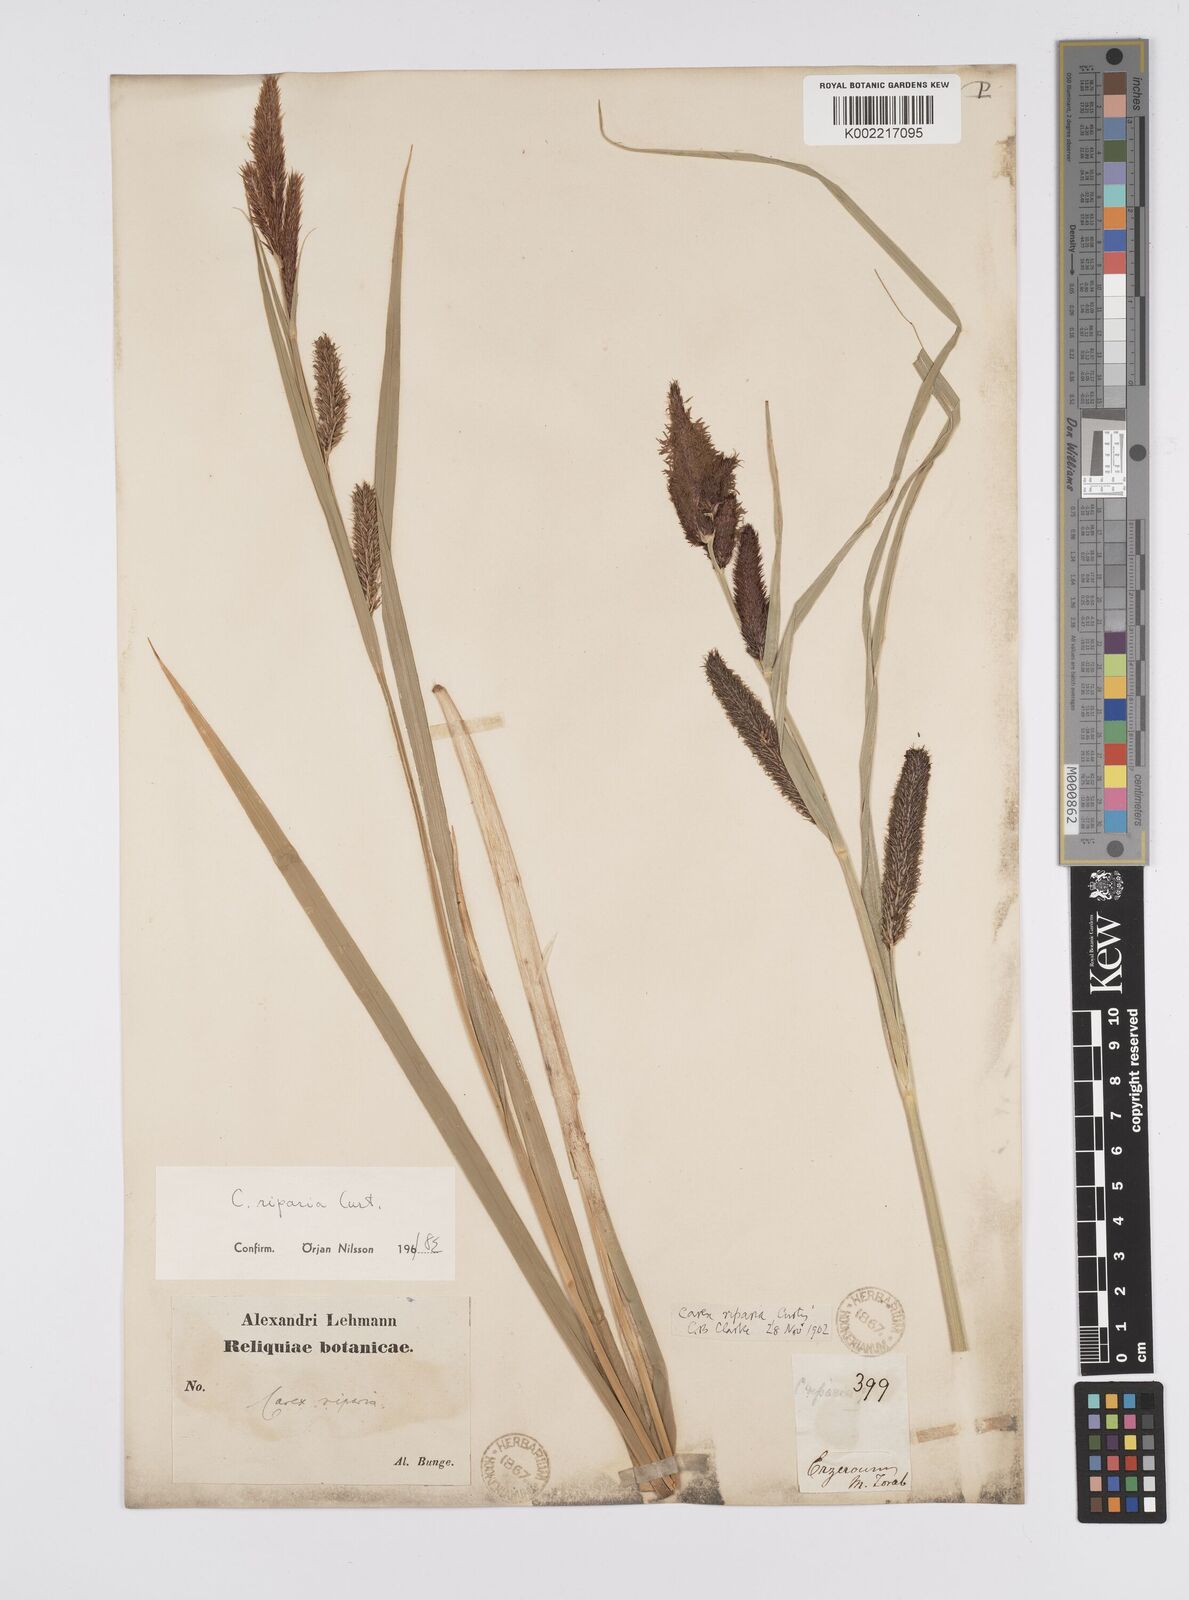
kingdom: Plantae
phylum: Tracheophyta
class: Liliopsida
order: Poales
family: Cyperaceae
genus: Carex
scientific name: Carex riparia
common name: Greater pond-sedge
